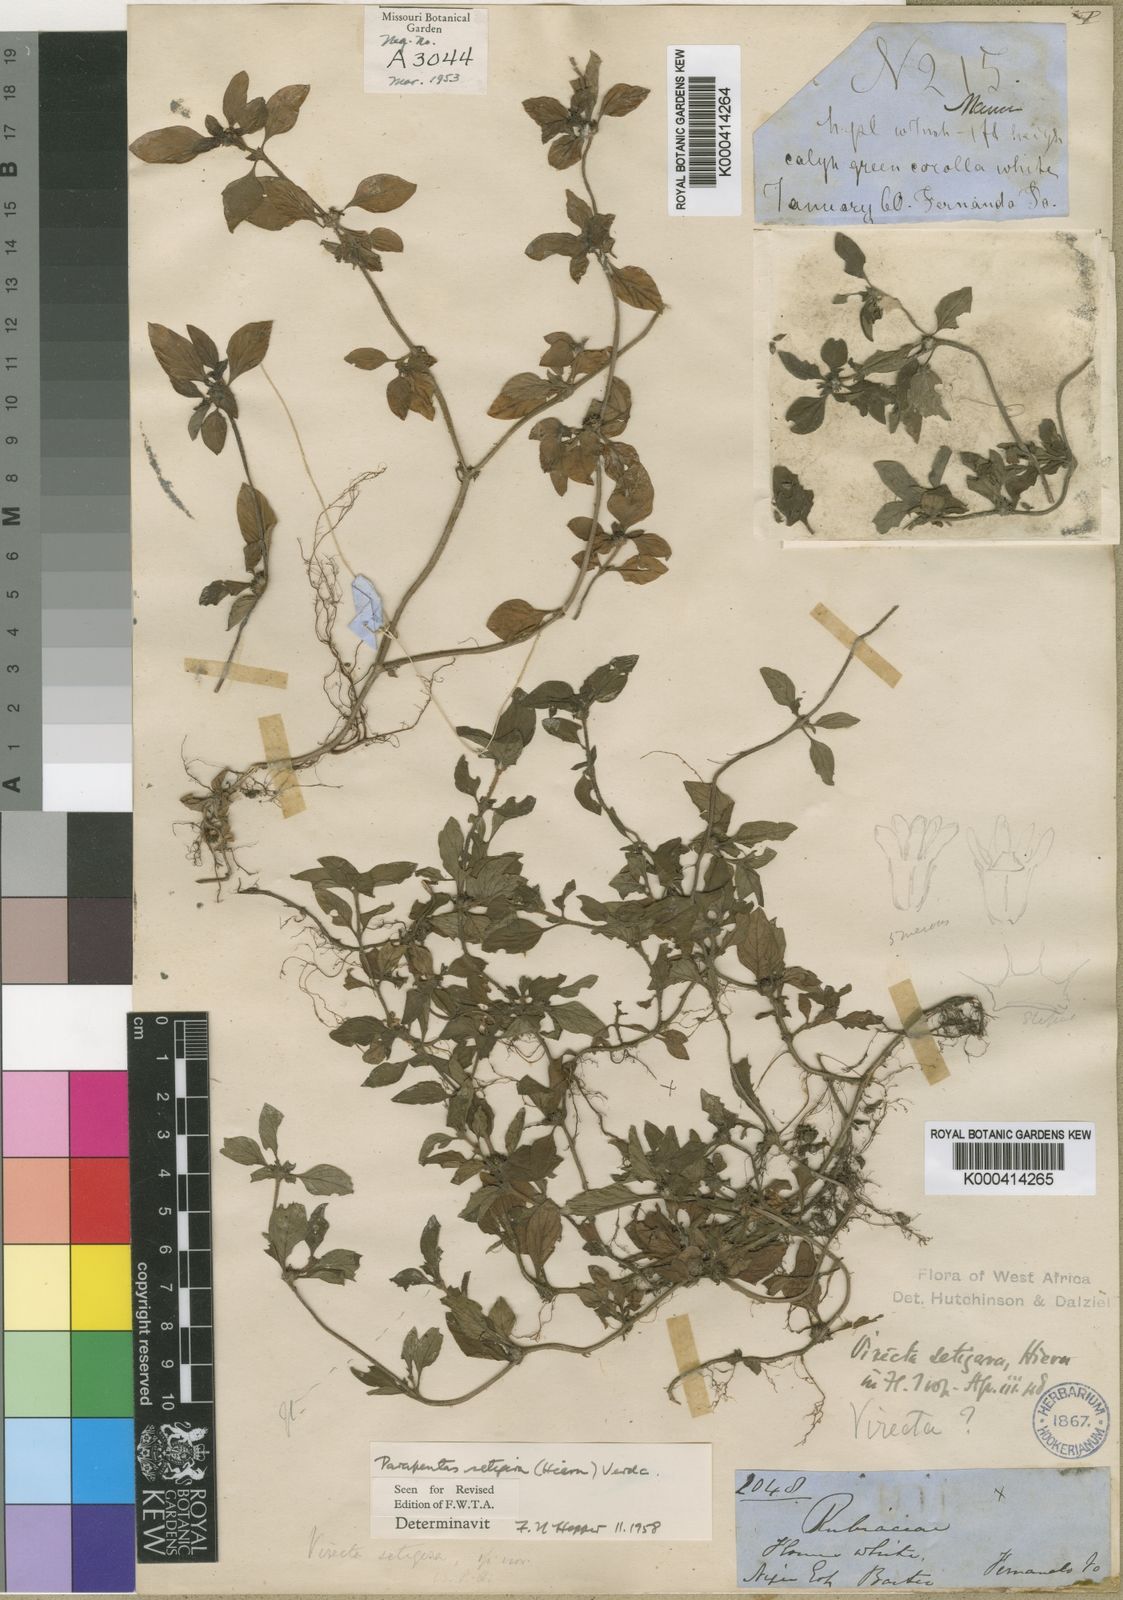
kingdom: Plantae
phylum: Tracheophyta
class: Magnoliopsida
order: Gentianales
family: Rubiaceae
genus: Parapentas
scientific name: Parapentas setigera
